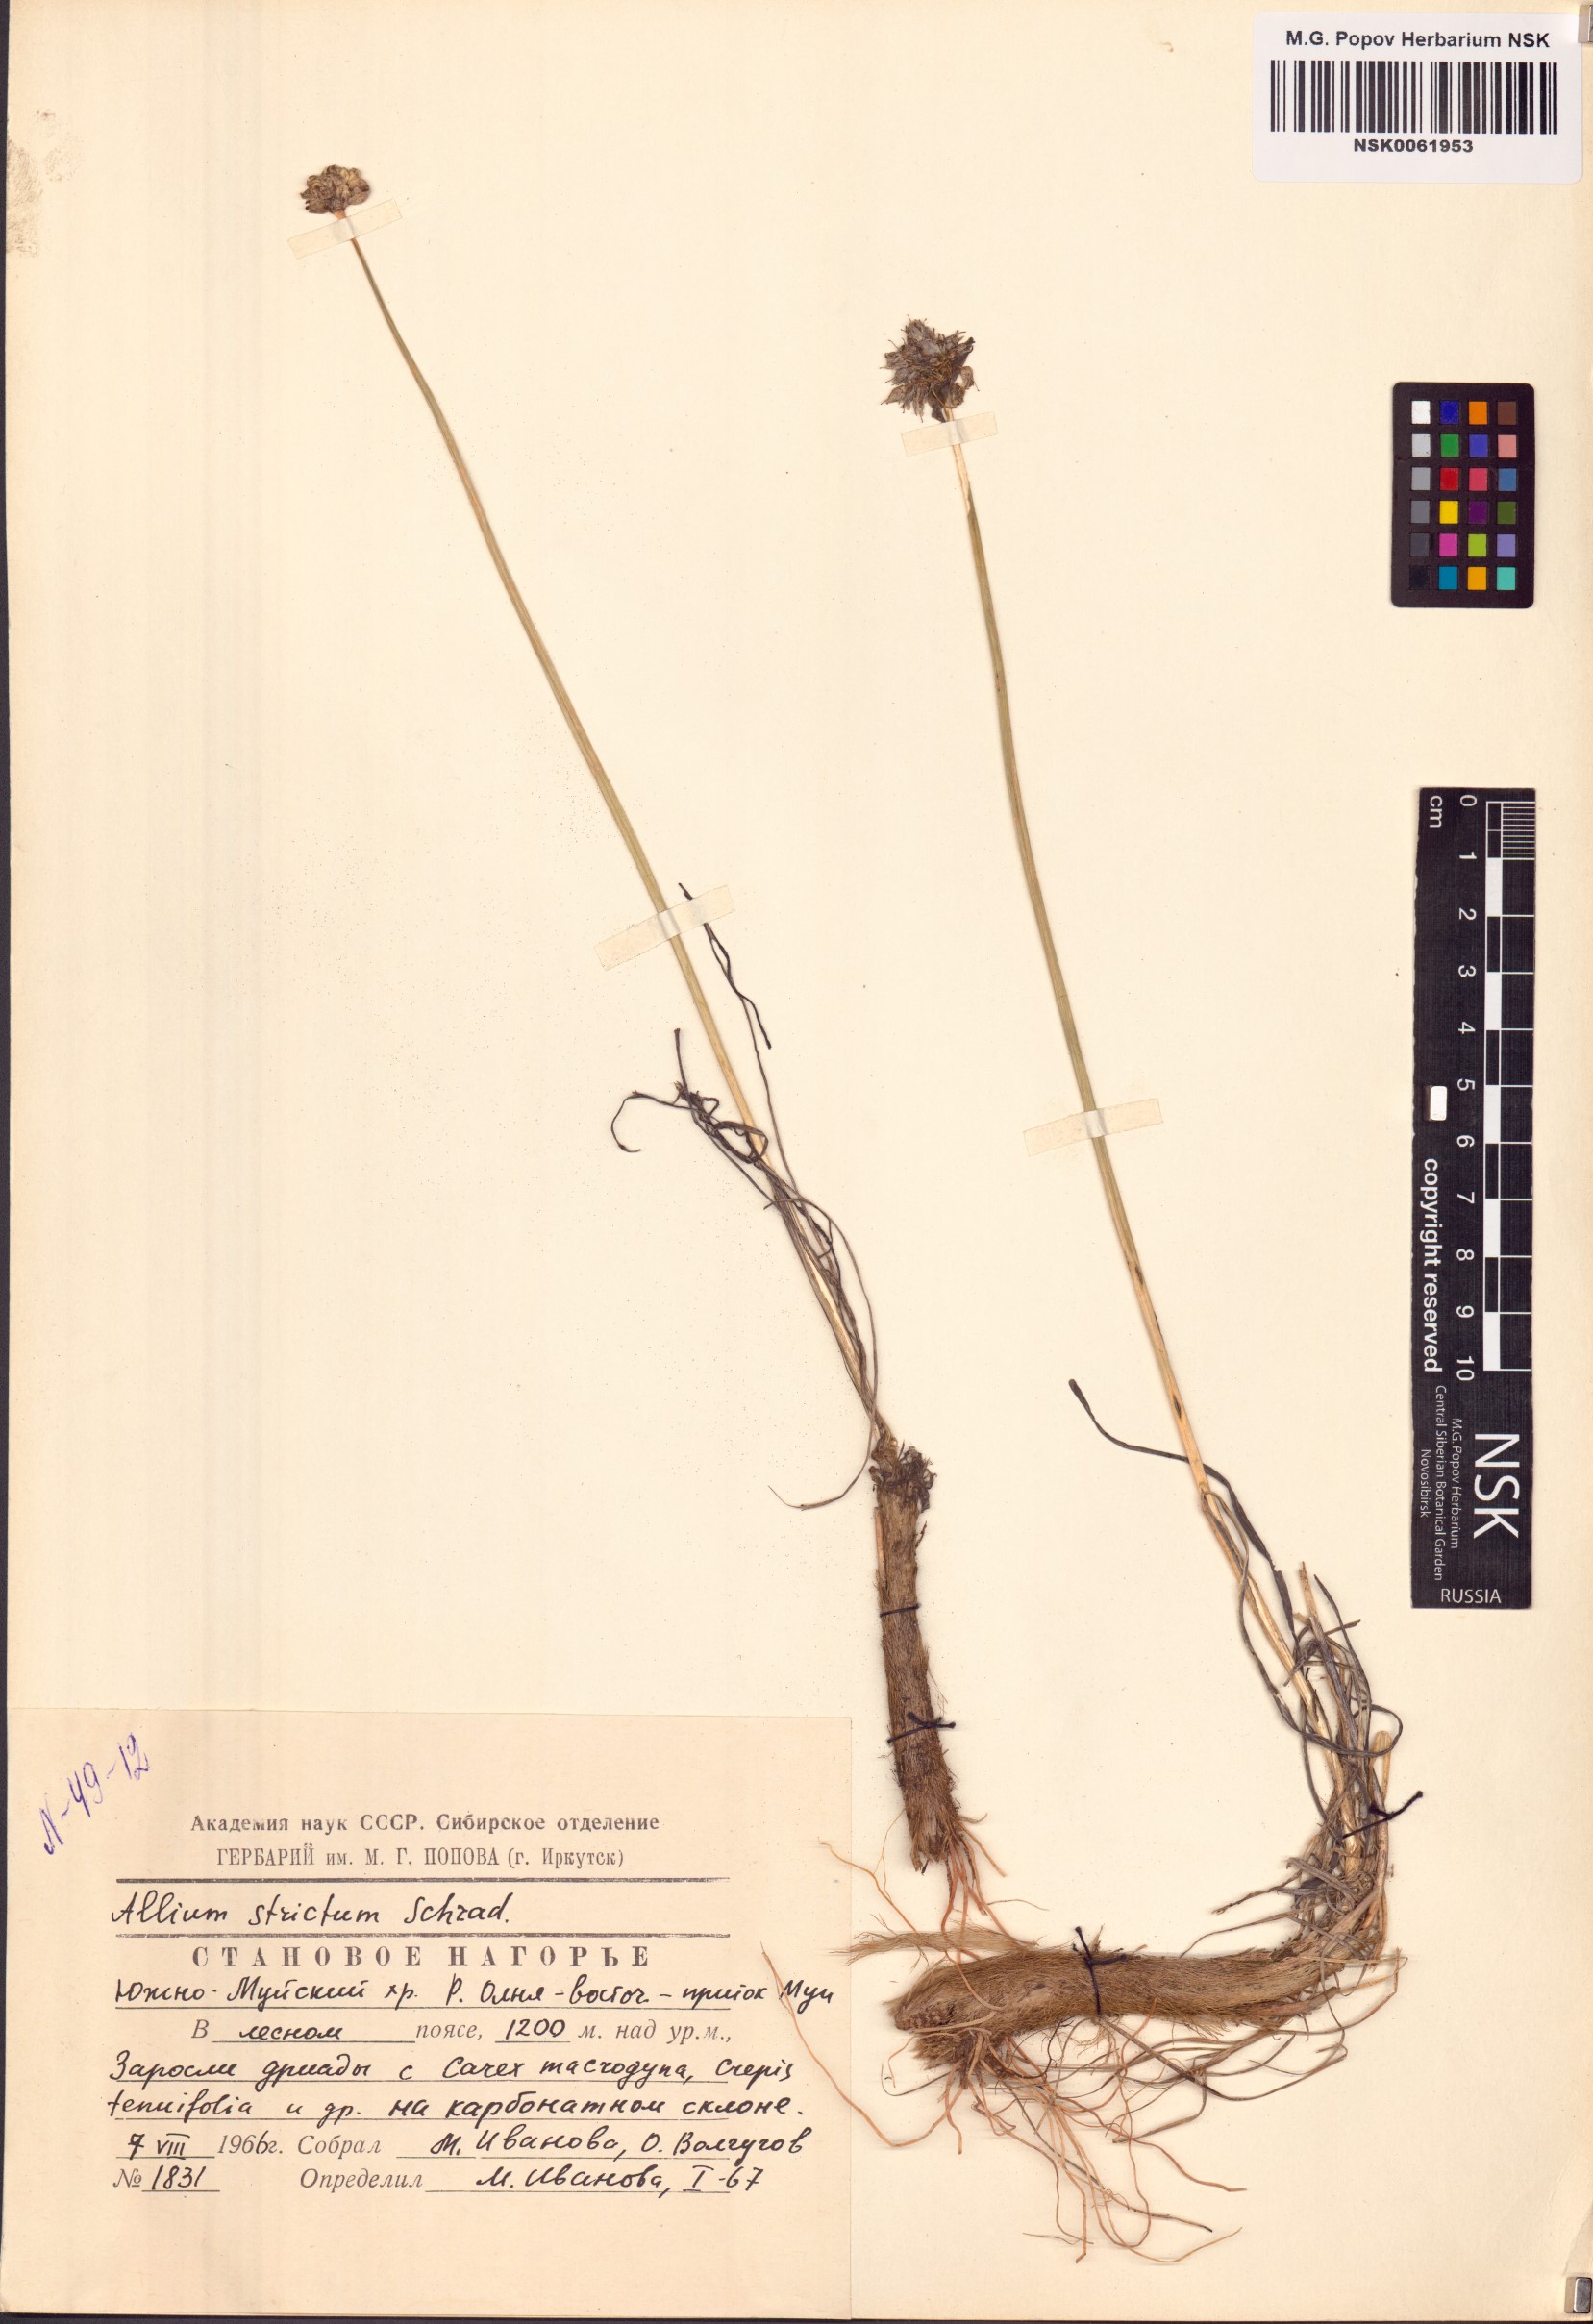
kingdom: Plantae
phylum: Tracheophyta
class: Liliopsida
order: Asparagales
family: Amaryllidaceae
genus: Allium
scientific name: Allium strictum
